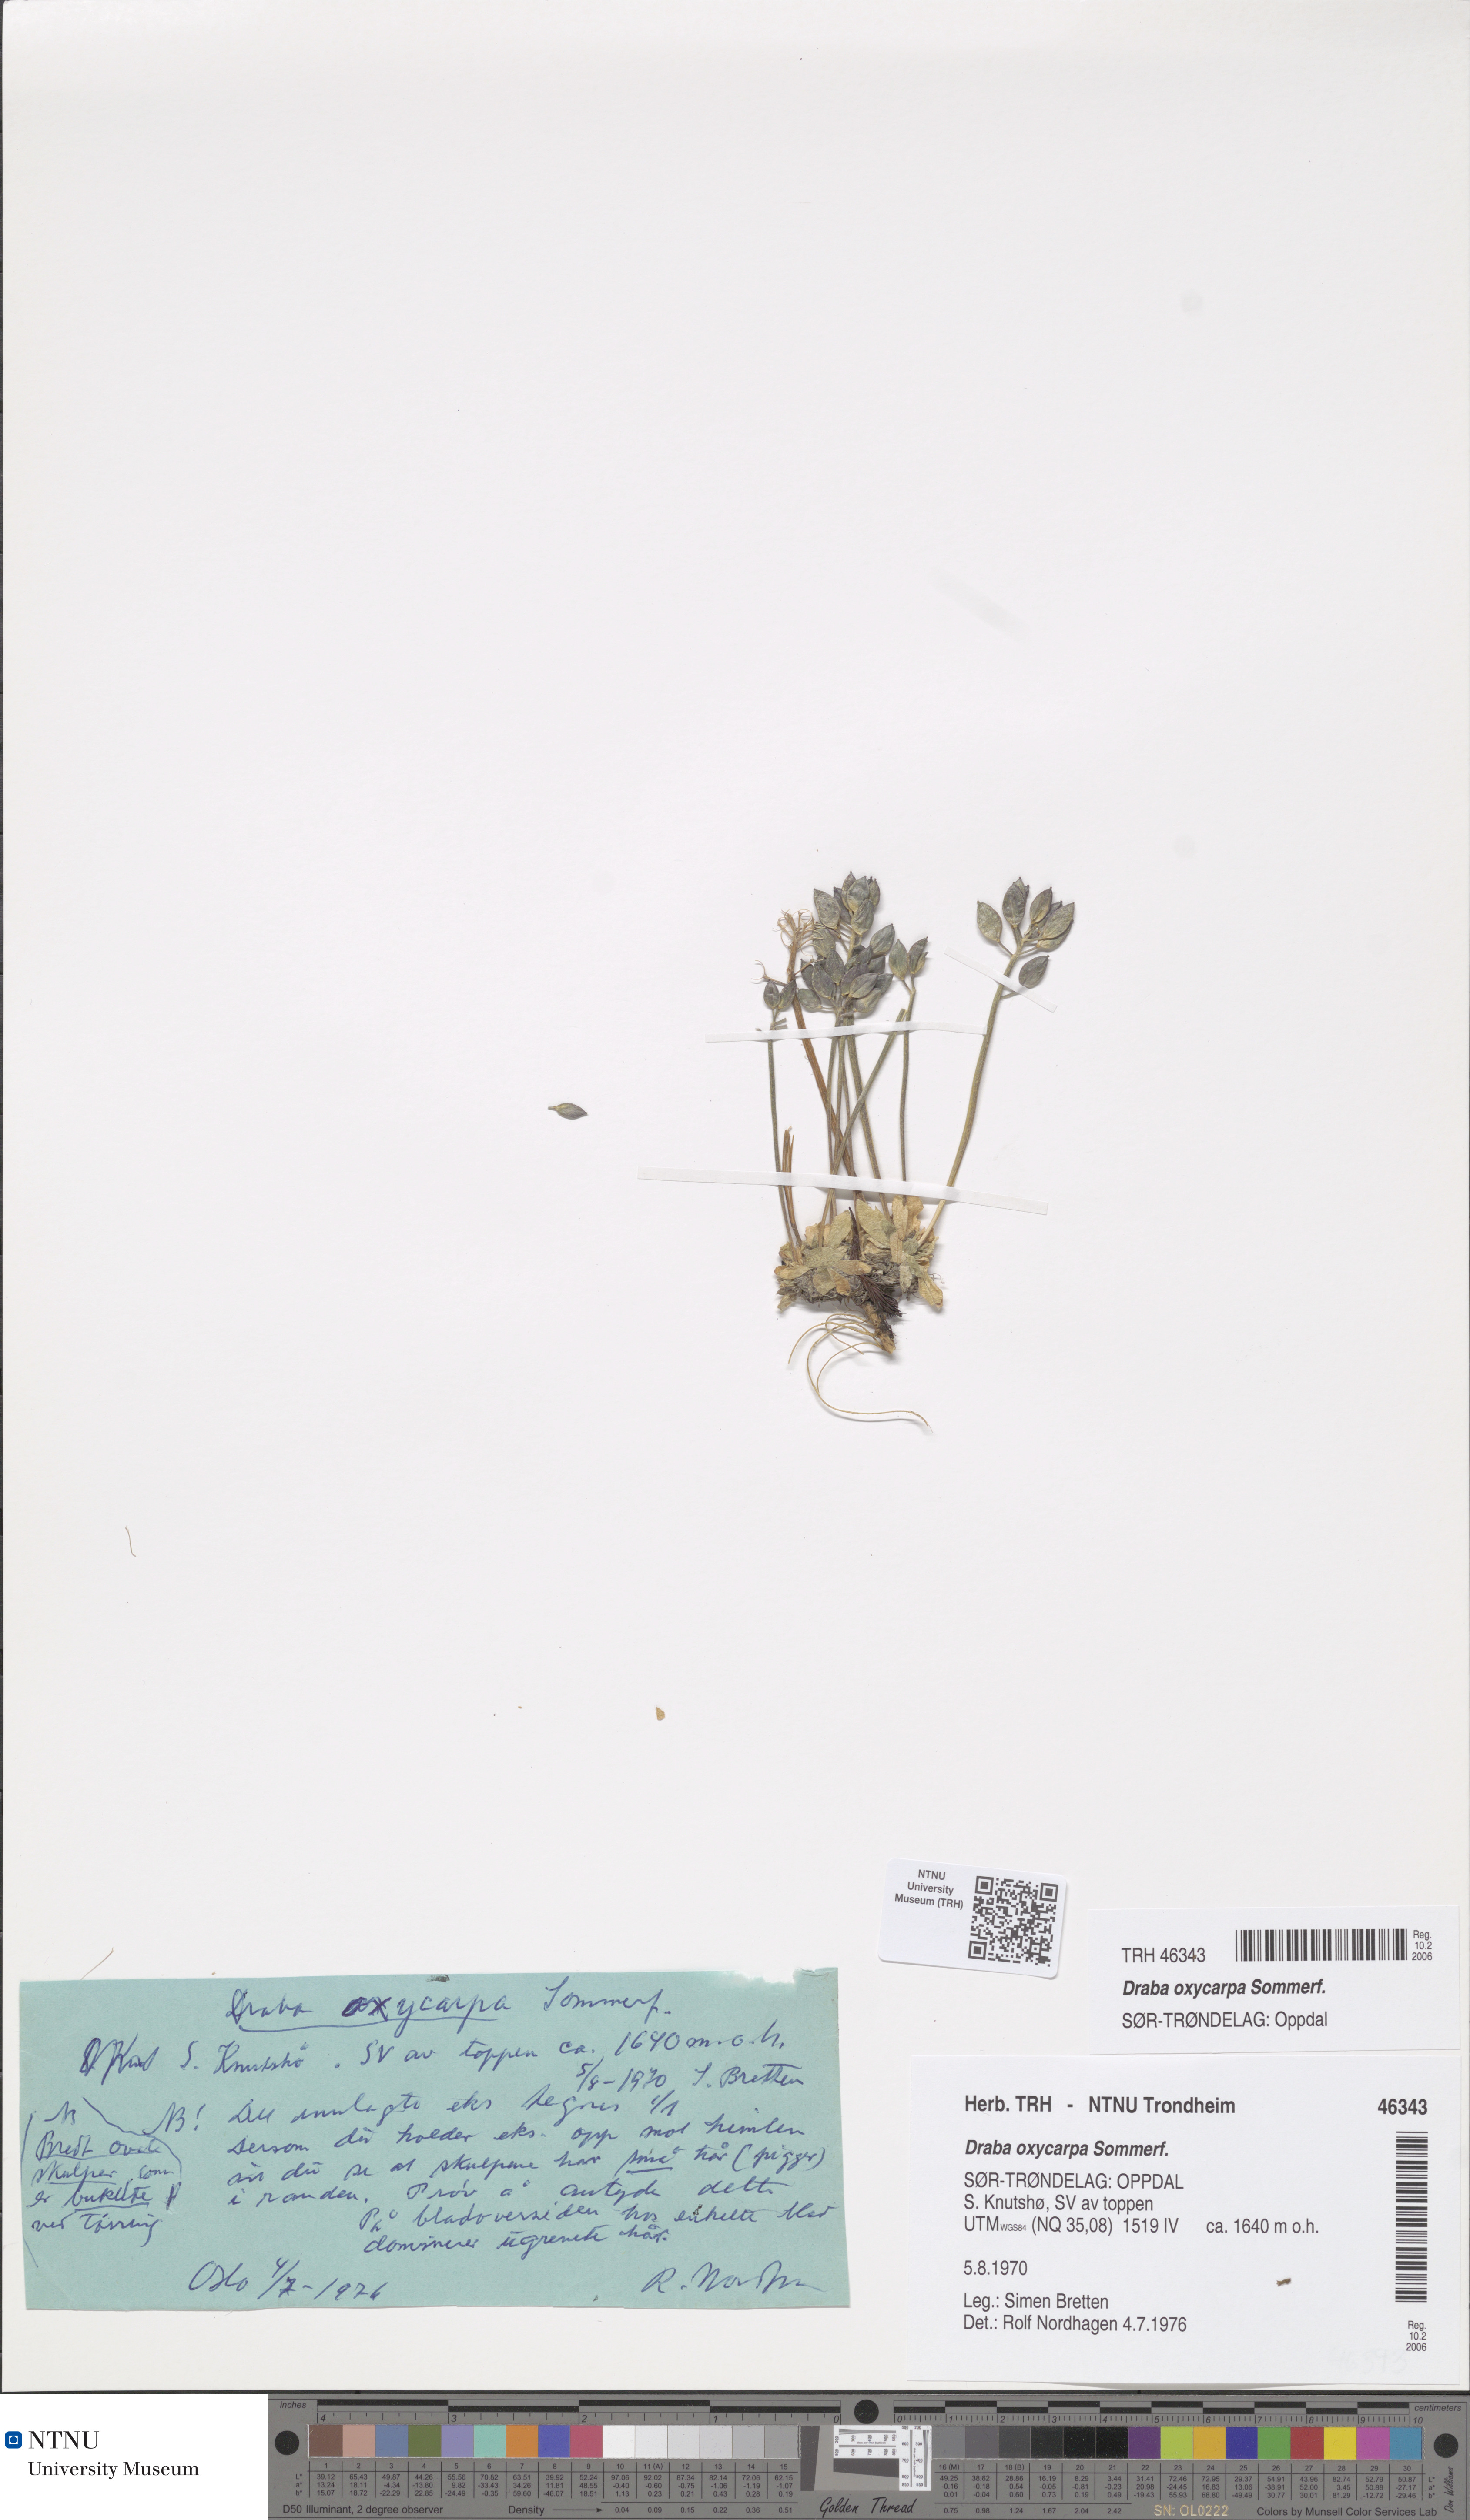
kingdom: Plantae
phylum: Tracheophyta
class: Magnoliopsida
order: Brassicales
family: Brassicaceae
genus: Draba
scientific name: Draba oxycarpa
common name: Sharp-fruited whitlow-grass
